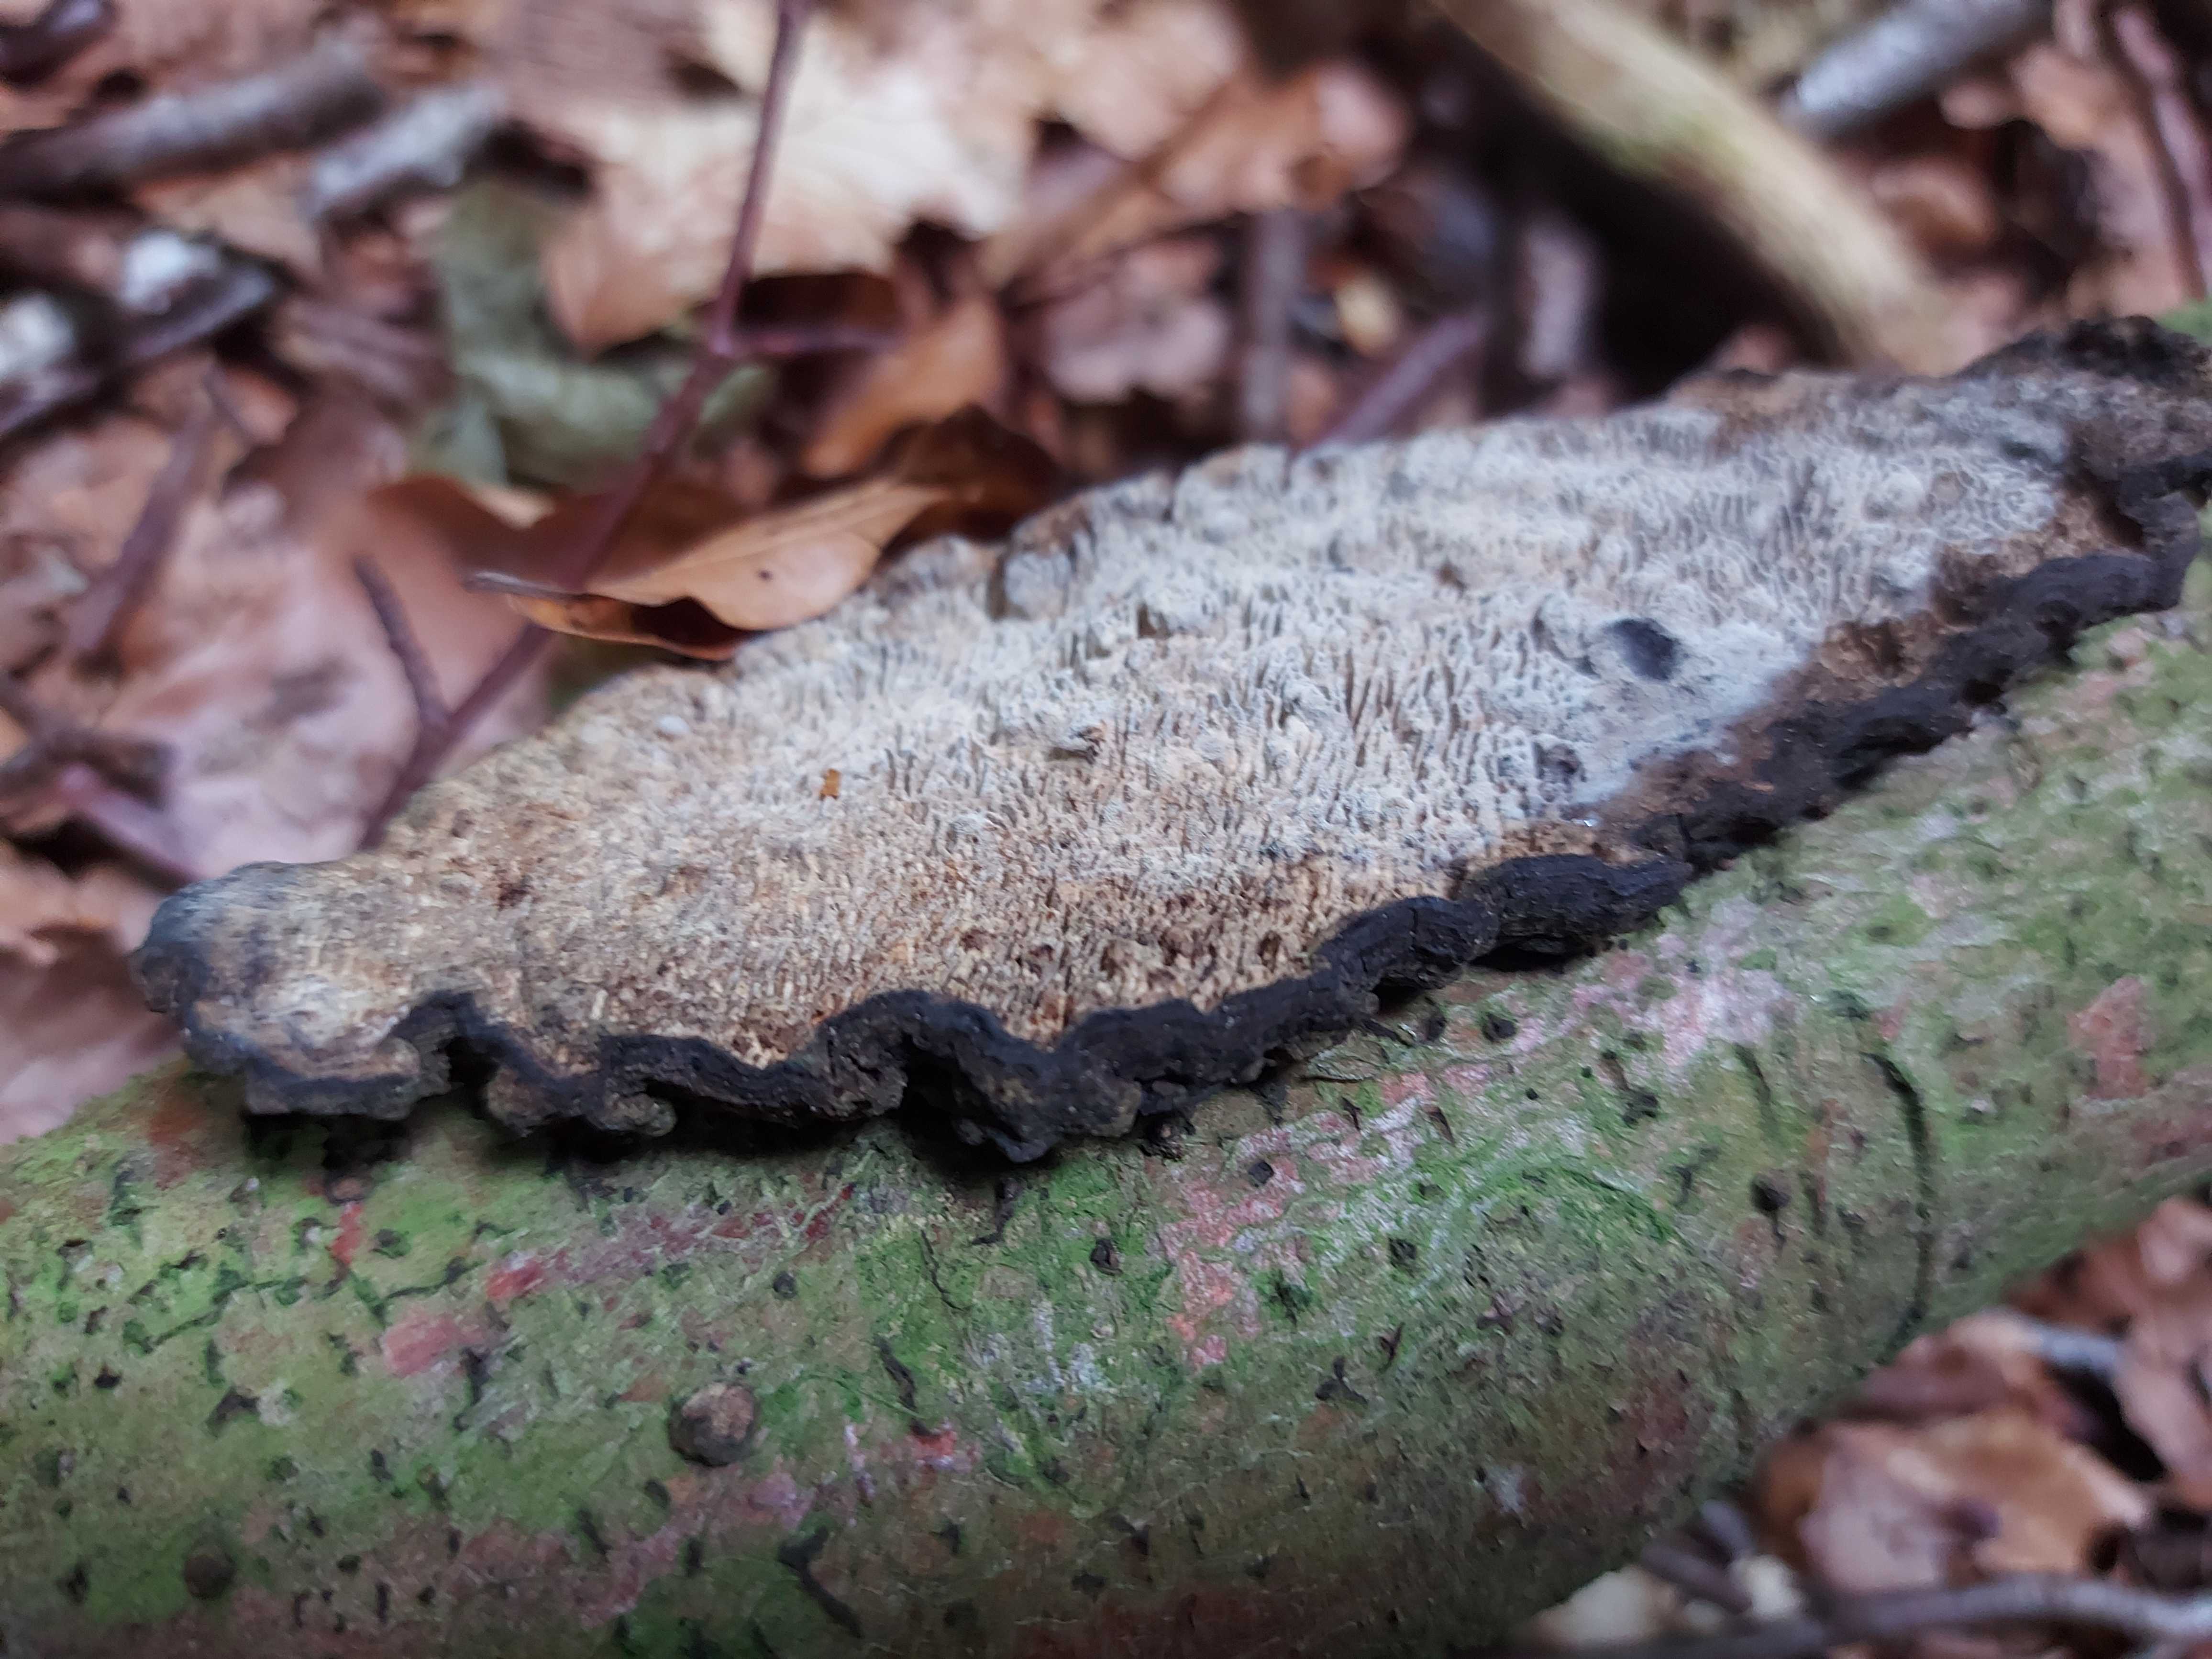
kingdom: Fungi
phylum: Basidiomycota
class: Agaricomycetes
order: Polyporales
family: Polyporaceae
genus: Podofomes
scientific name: Podofomes mollis
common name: blød begporesvamp
